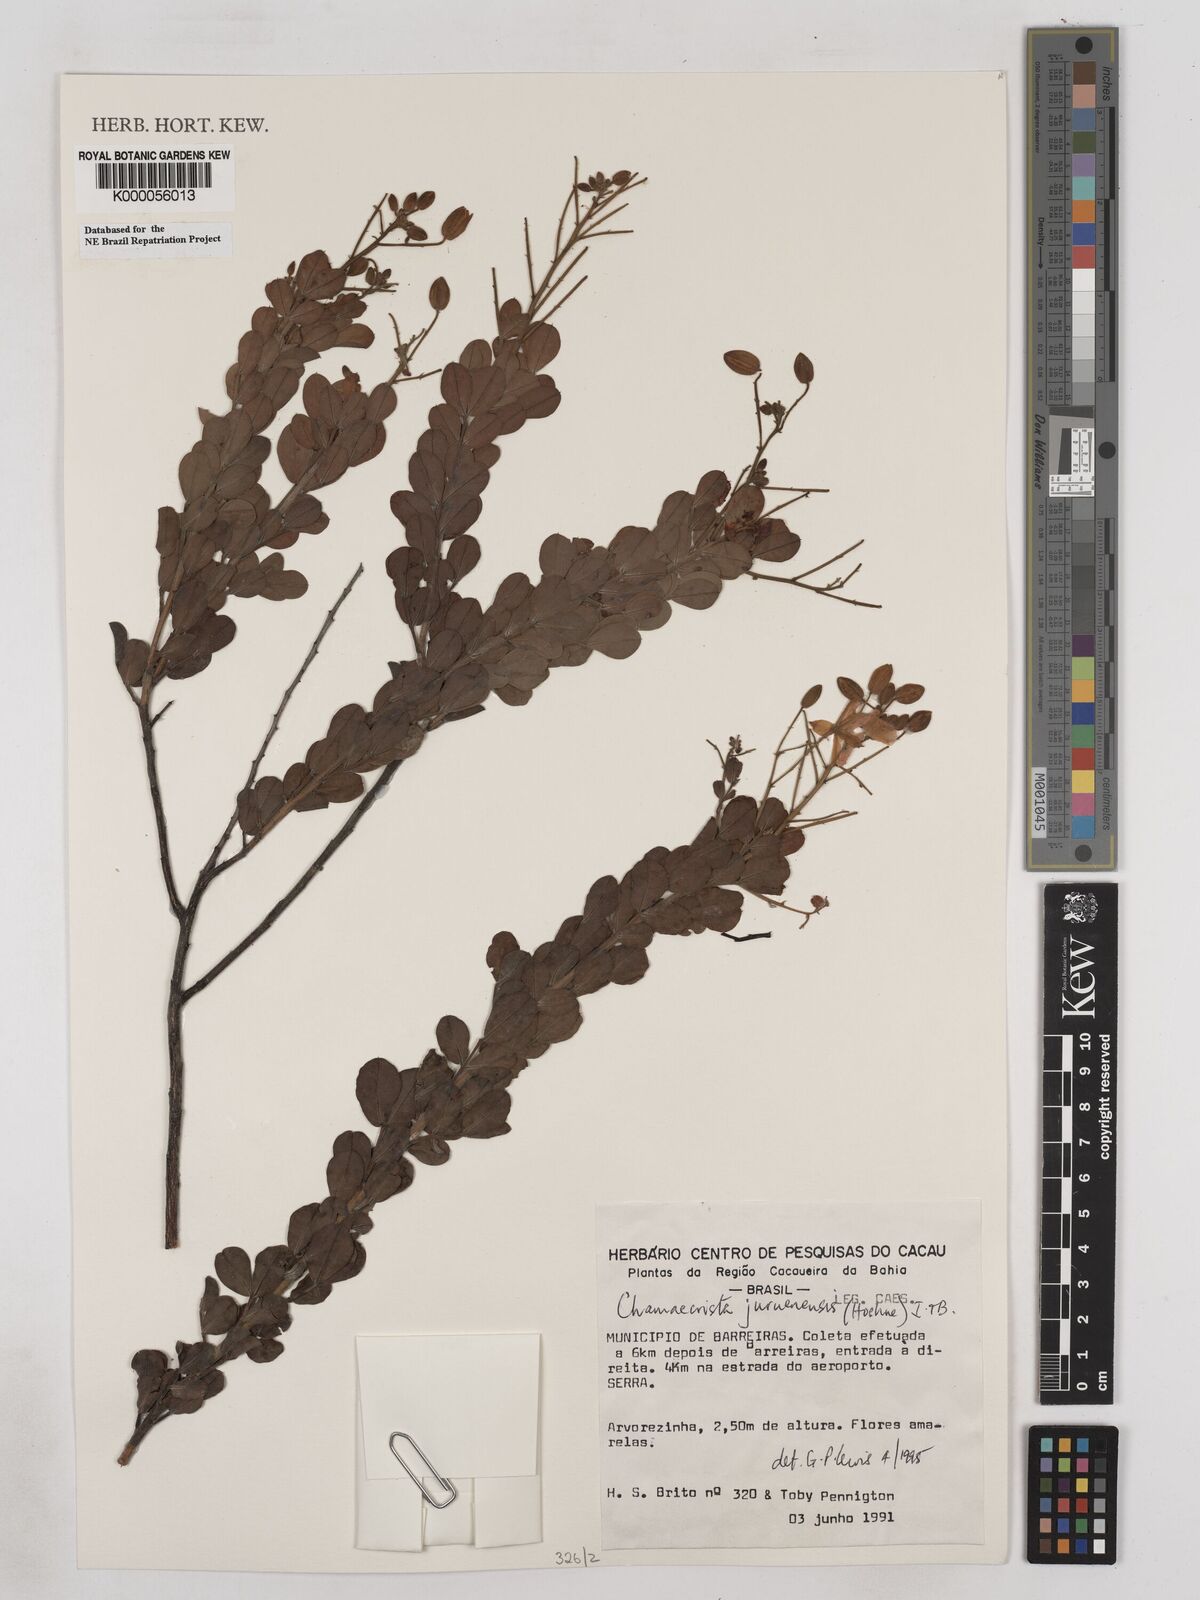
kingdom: Plantae
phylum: Tracheophyta
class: Magnoliopsida
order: Fabales
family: Fabaceae
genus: Chamaecrista
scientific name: Chamaecrista juruenensis
